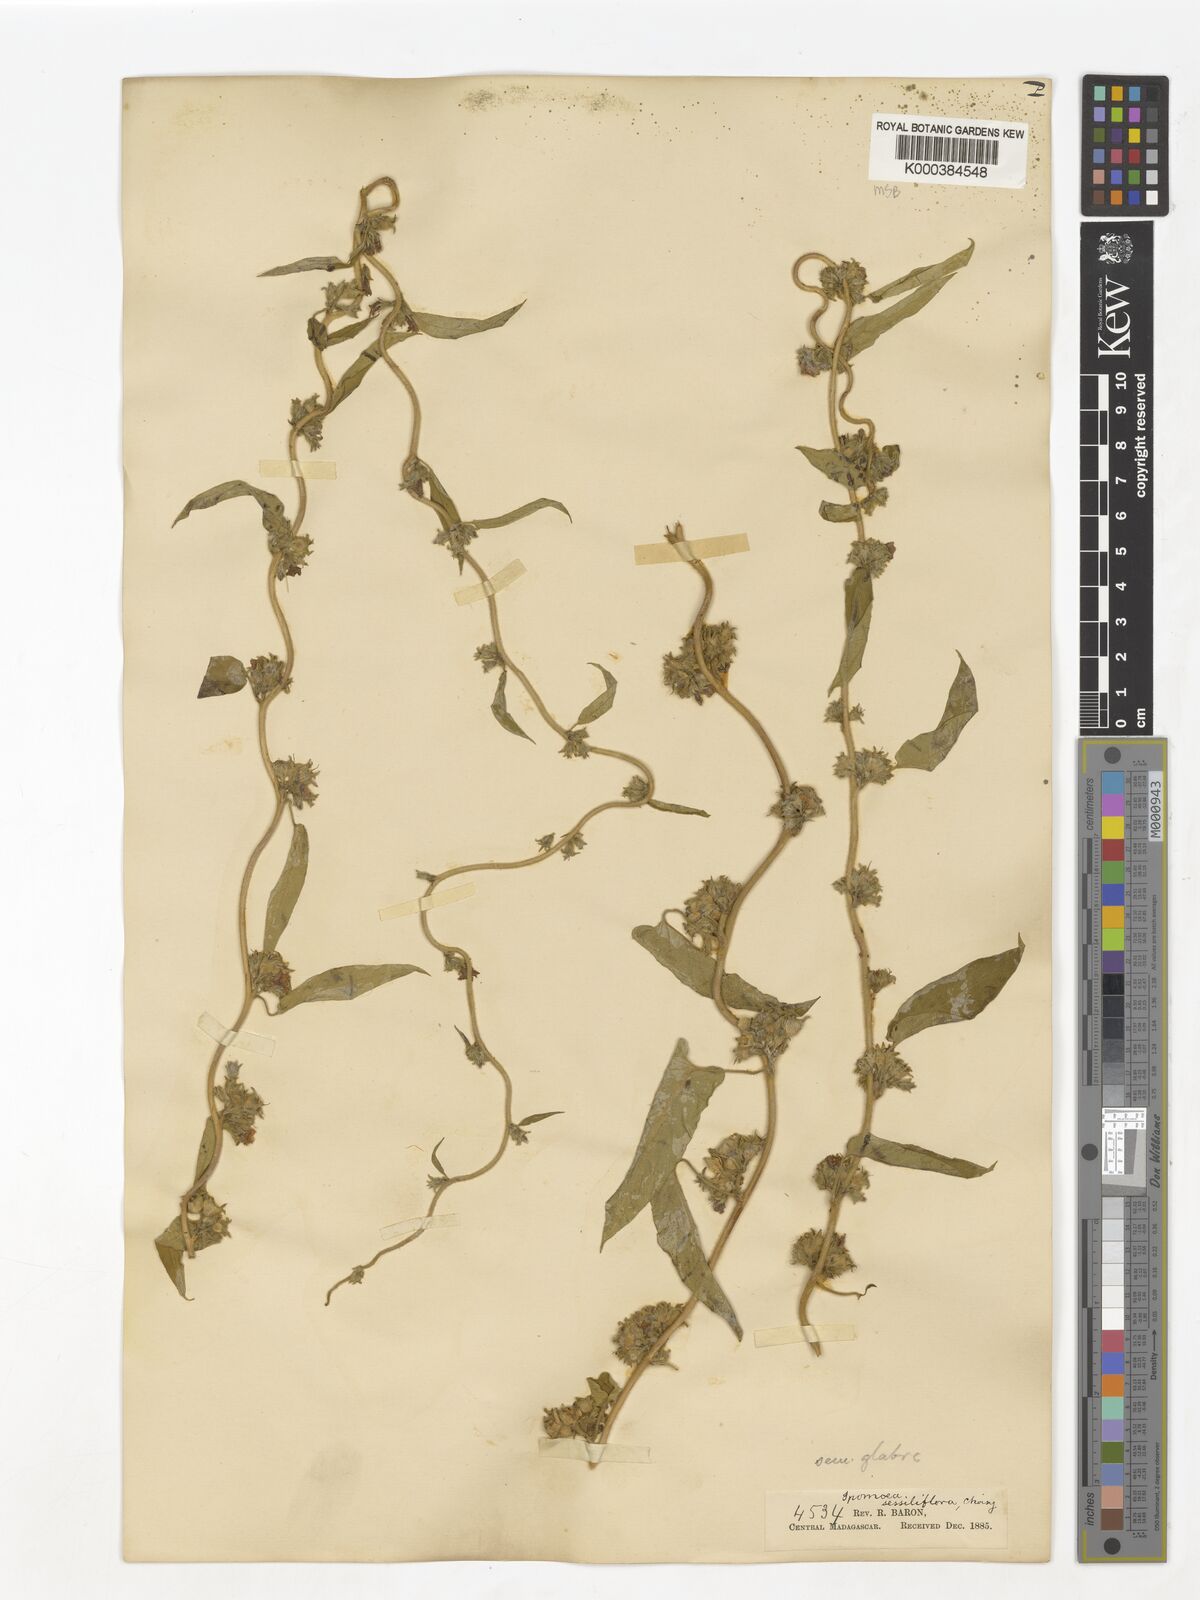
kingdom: Plantae
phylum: Tracheophyta
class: Magnoliopsida
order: Solanales
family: Convolvulaceae
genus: Ipomoea
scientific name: Ipomoea eriocarpa
